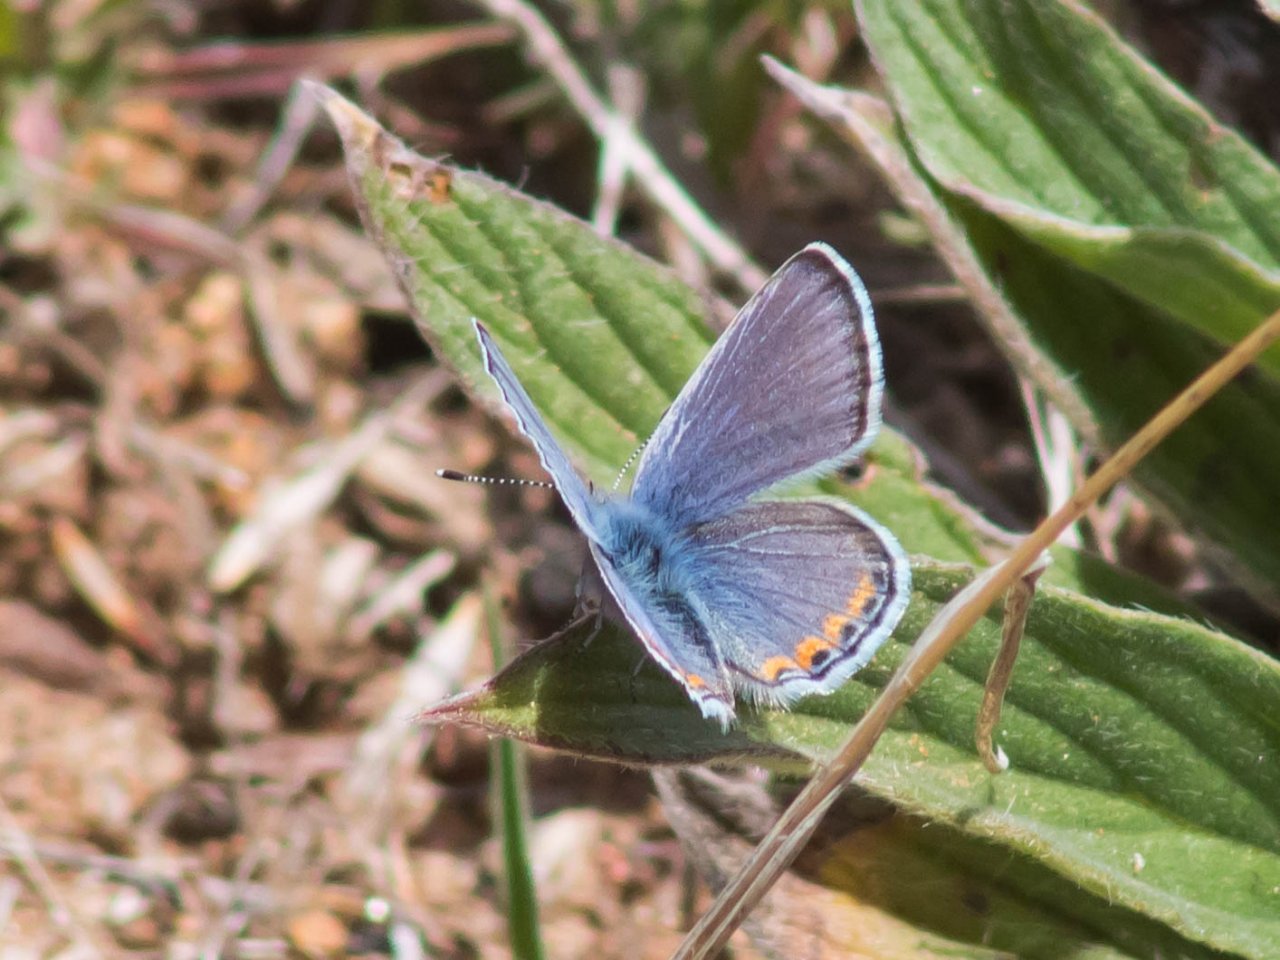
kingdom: Animalia
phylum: Arthropoda
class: Insecta
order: Lepidoptera
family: Lycaenidae
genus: Plebejus
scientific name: Plebejus
